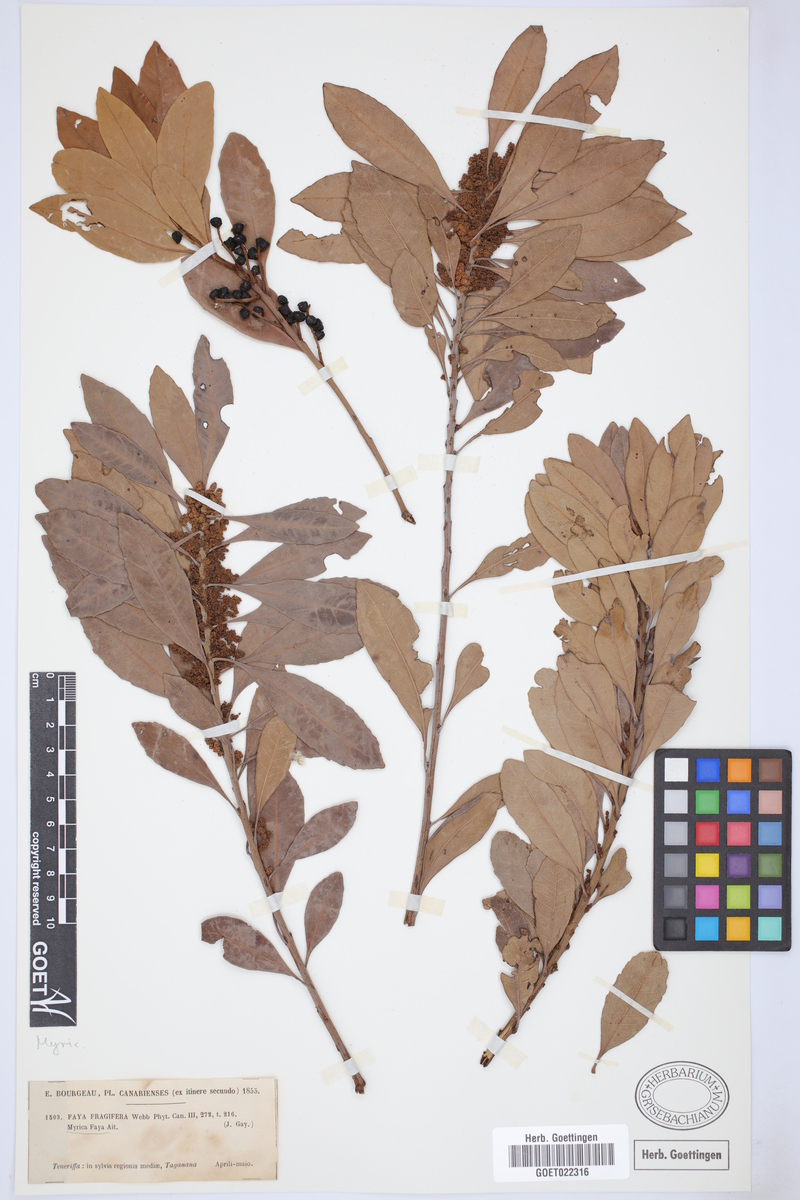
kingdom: Plantae
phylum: Tracheophyta
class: Magnoliopsida
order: Fagales
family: Myricaceae
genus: Morella
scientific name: Morella faya
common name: Firetree
